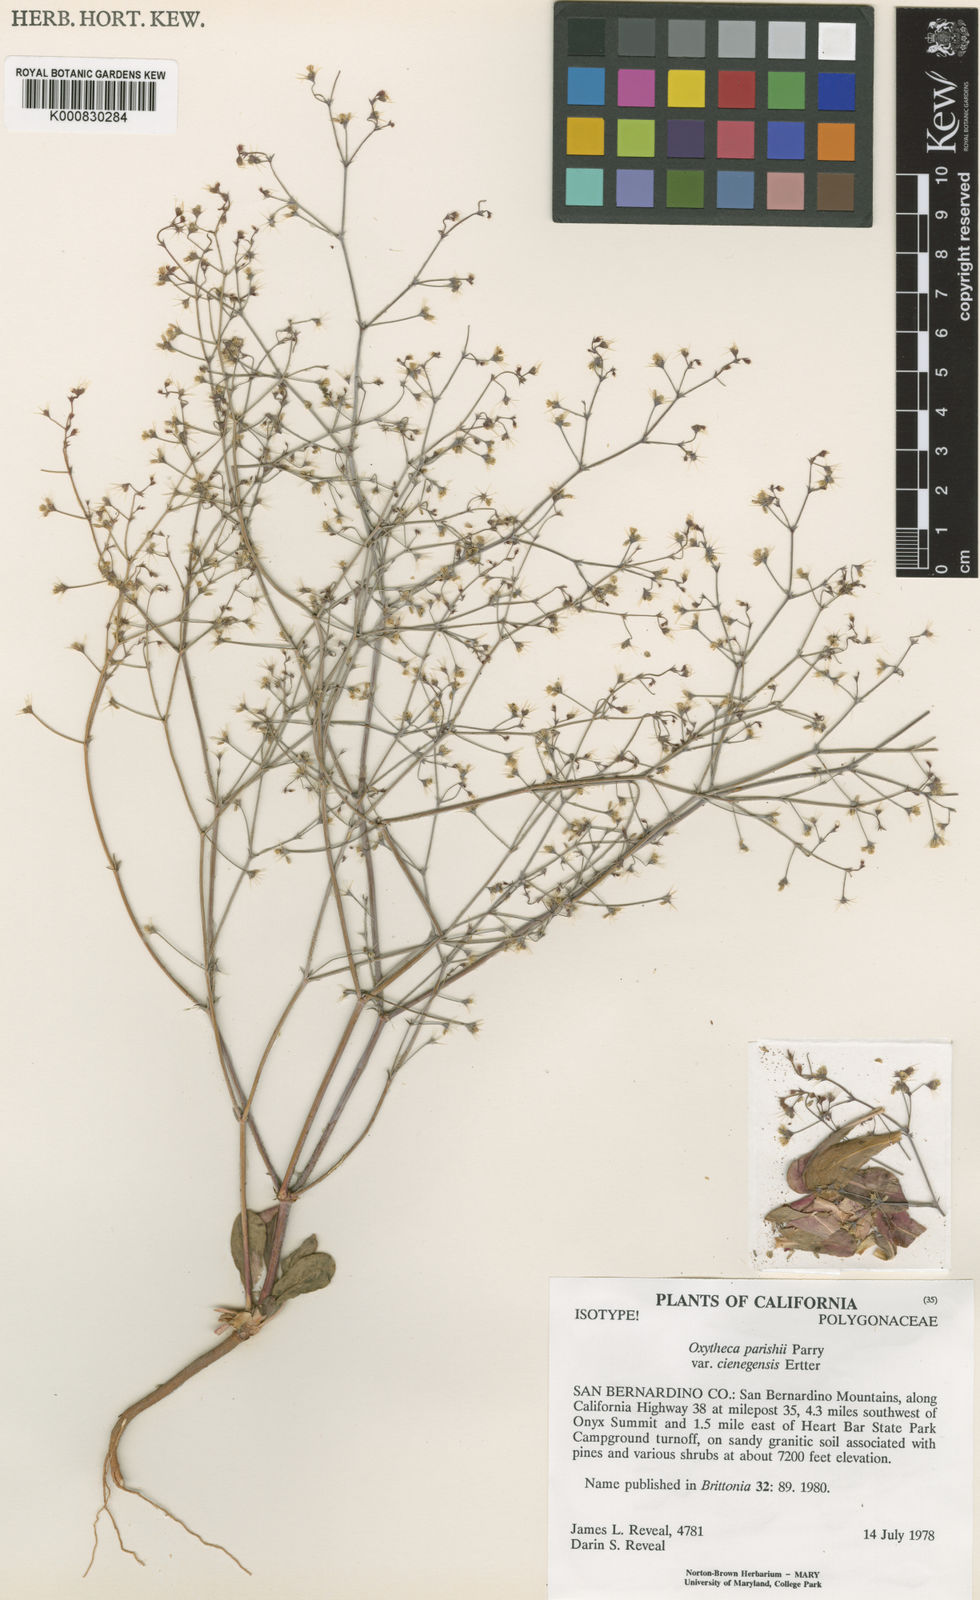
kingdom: Plantae
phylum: Tracheophyta
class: Magnoliopsida
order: Caryophyllales
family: Polygonaceae
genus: Acanthoscyphus
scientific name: Acanthoscyphus parishii
